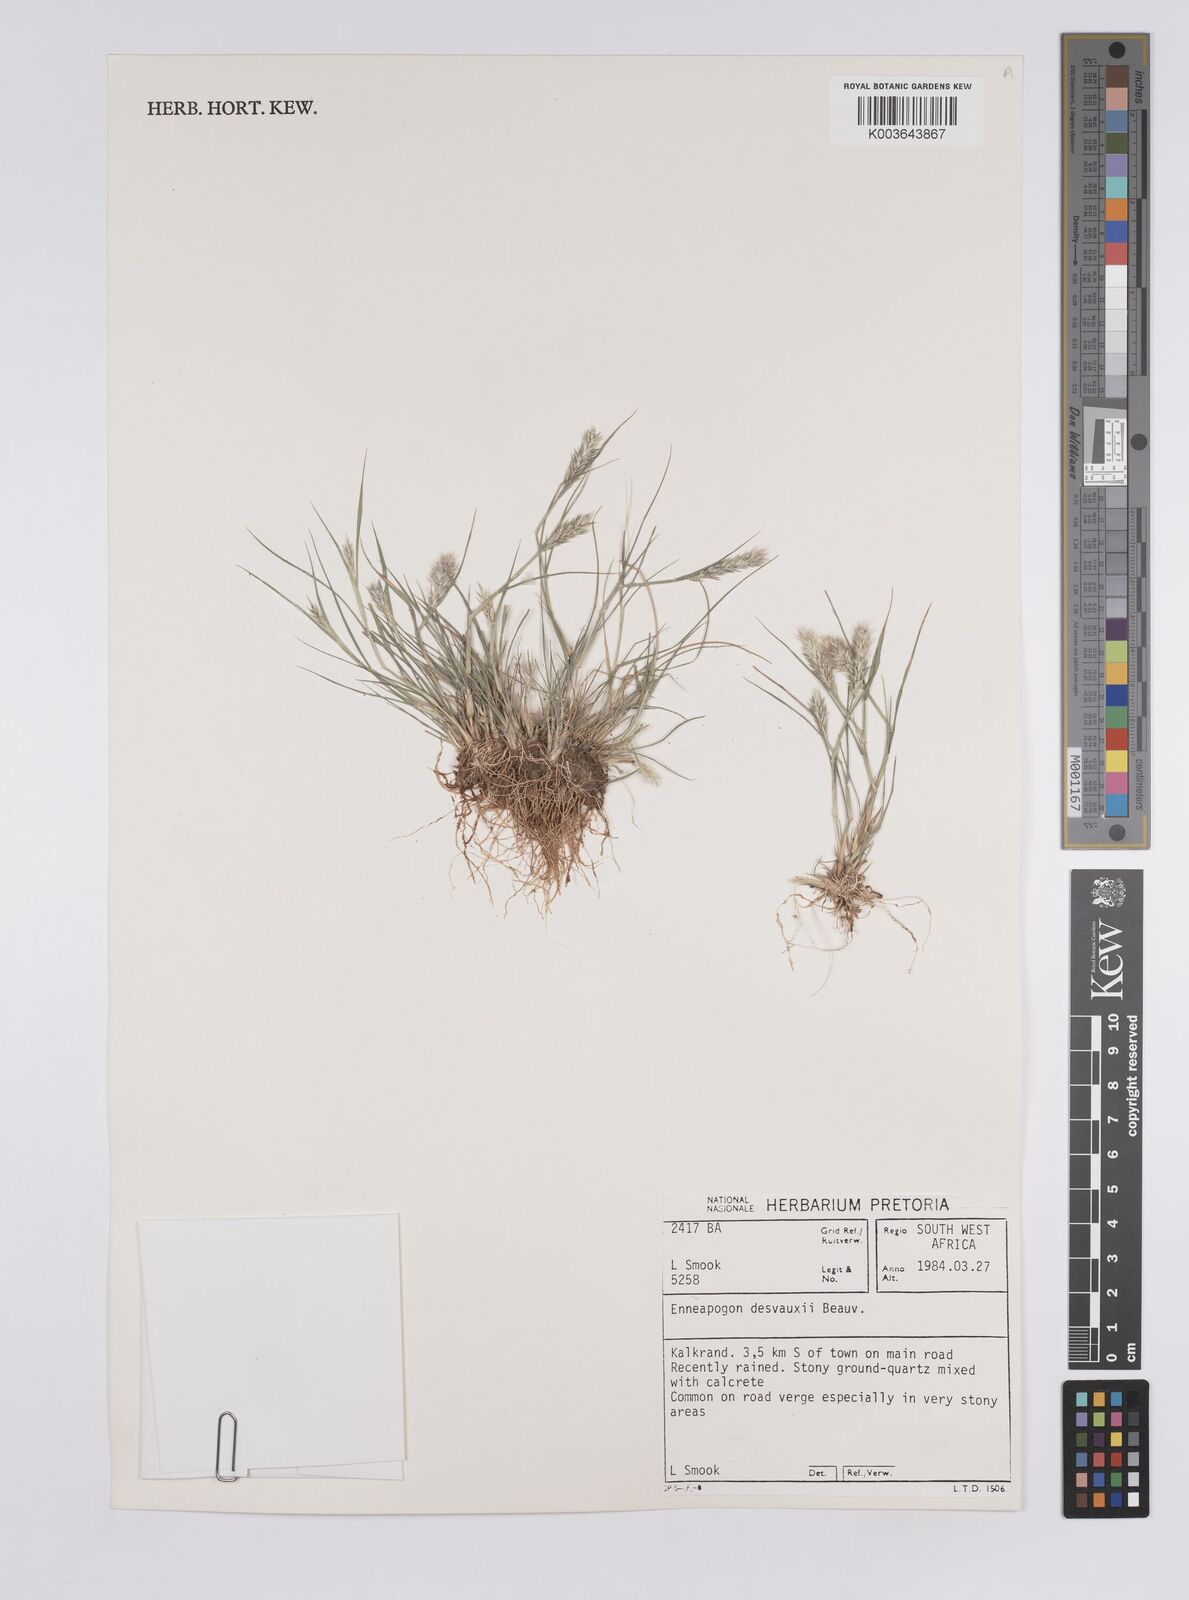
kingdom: Plantae
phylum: Tracheophyta
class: Liliopsida
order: Poales
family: Poaceae
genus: Enneapogon
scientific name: Enneapogon desvauxii
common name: Feather pappus grass
